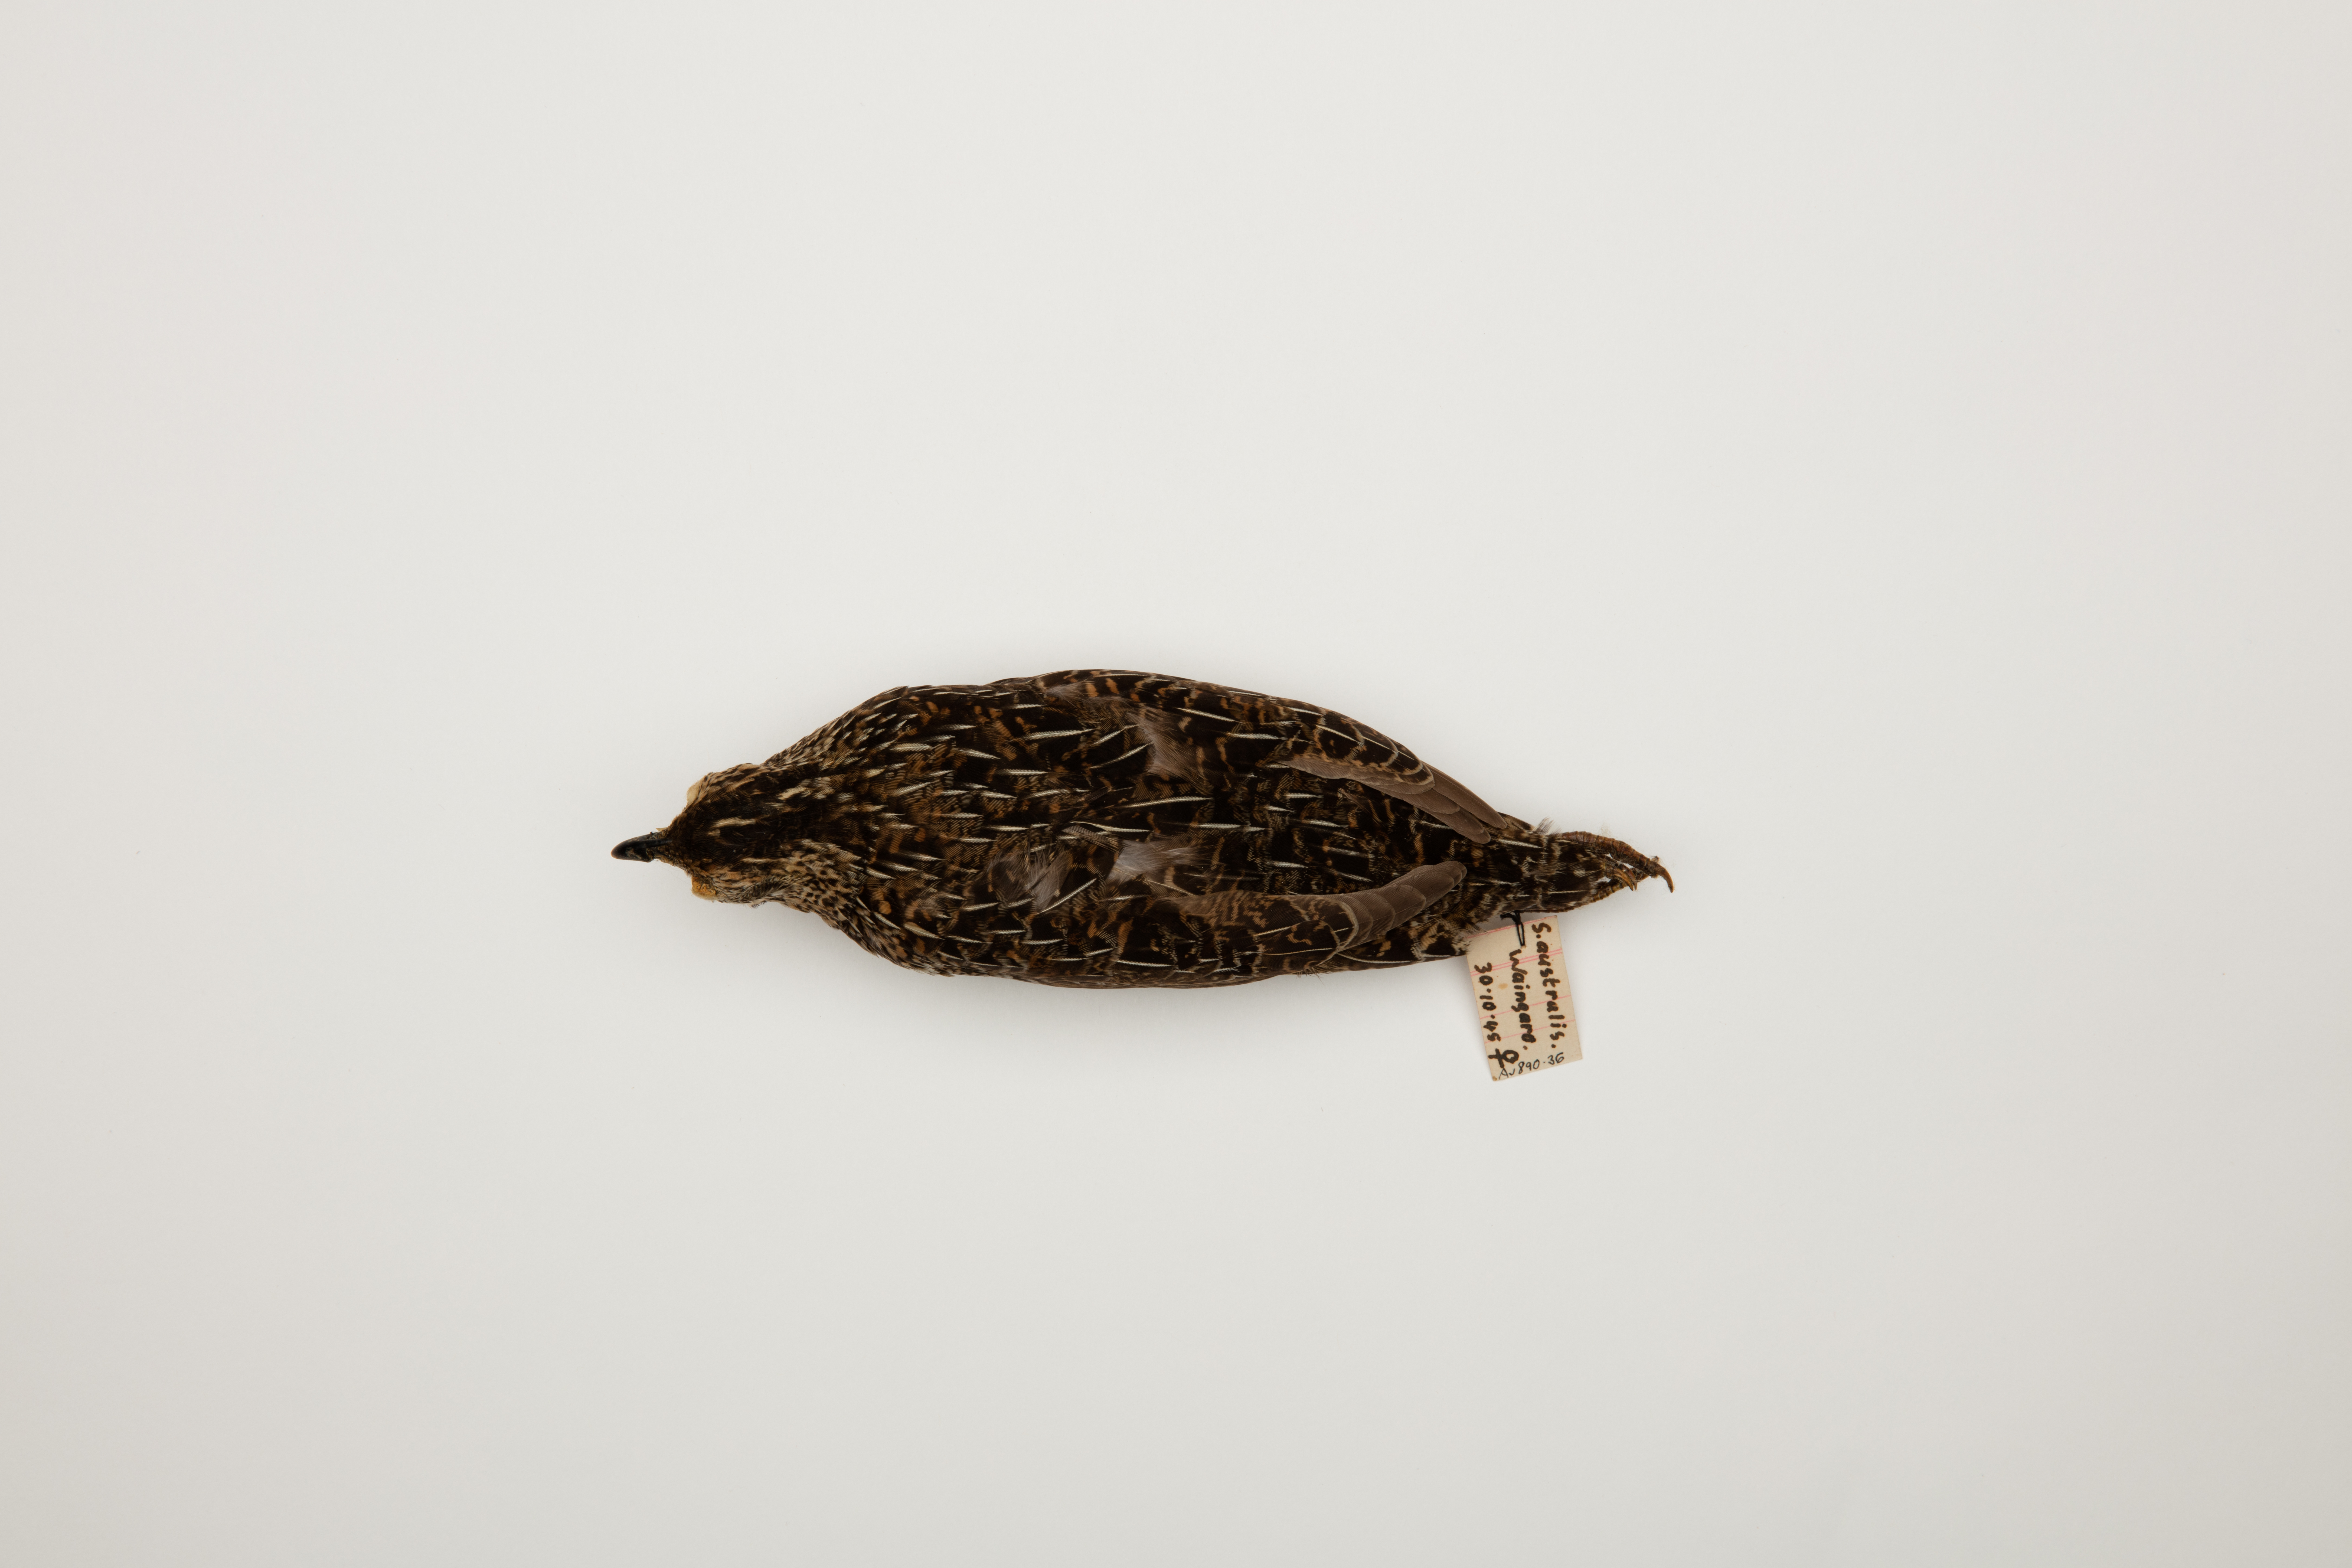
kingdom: Animalia
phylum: Chordata
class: Aves
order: Galliformes
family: Phasianidae
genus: Synoicus
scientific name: Synoicus ypsilophorus
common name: Brown quail
